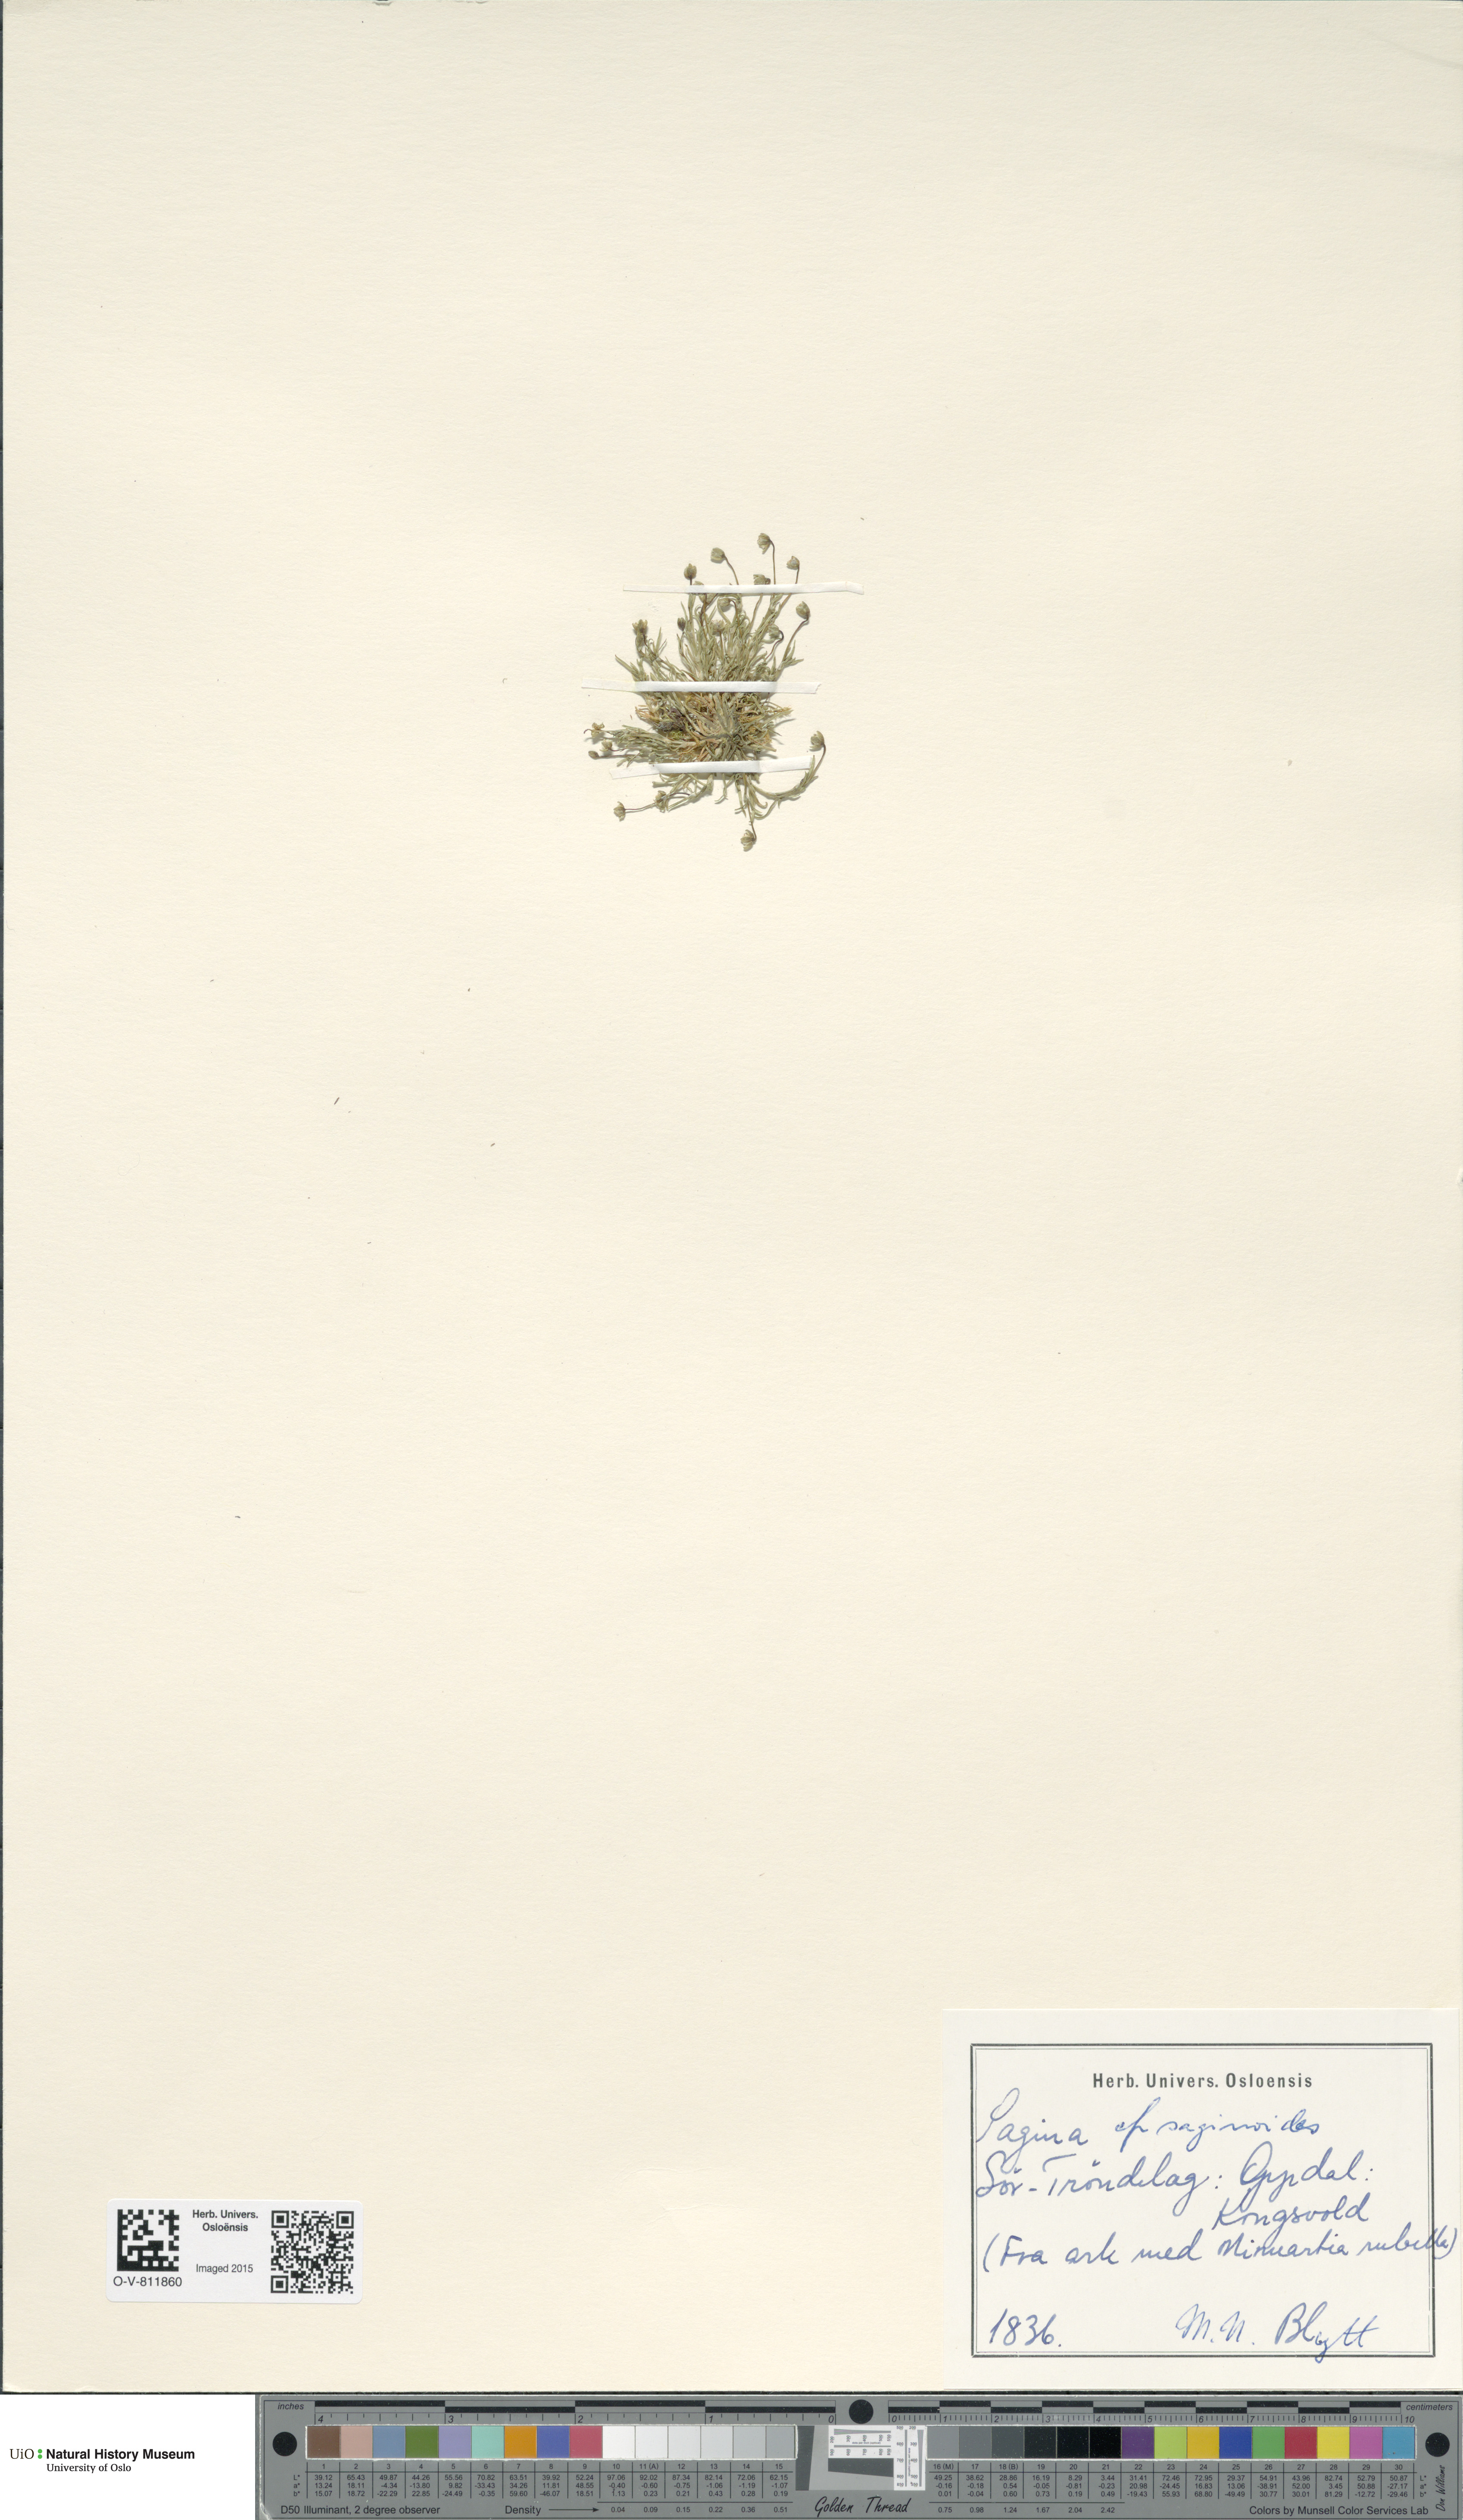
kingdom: Plantae
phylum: Tracheophyta
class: Magnoliopsida
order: Caryophyllales
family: Caryophyllaceae
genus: Sagina
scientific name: Sagina saginoides
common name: Alpine pearlwort
